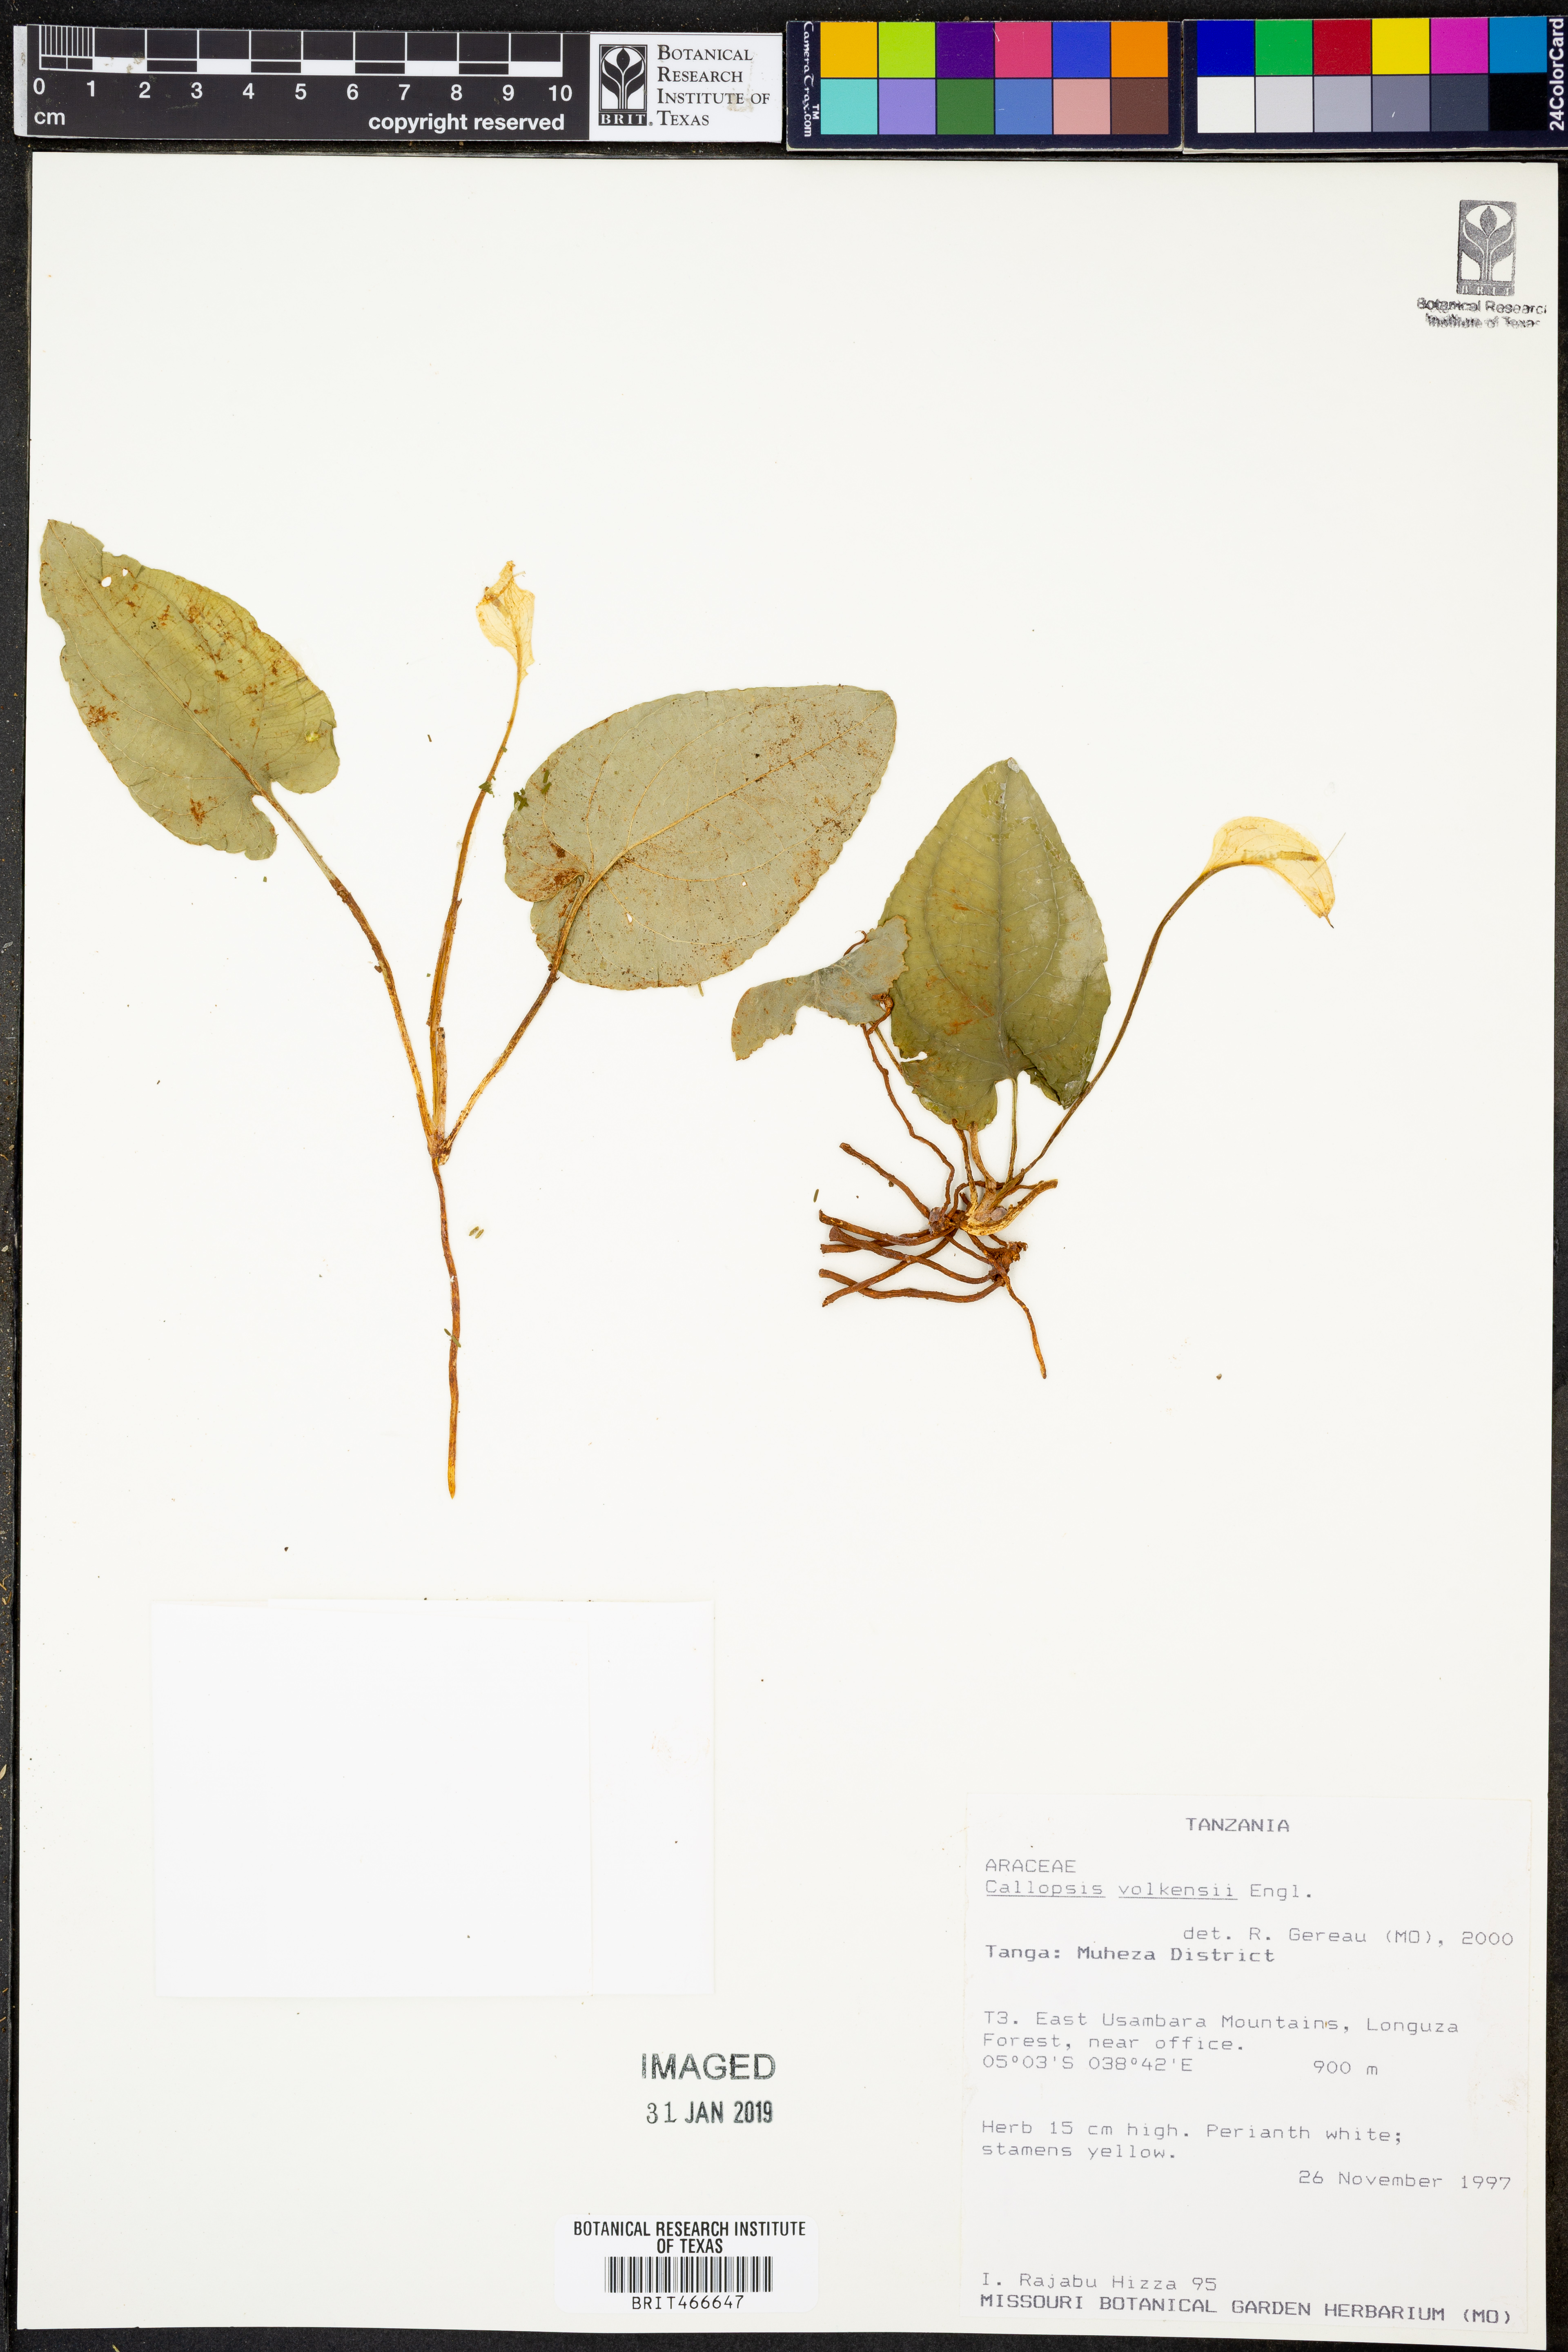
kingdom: Plantae
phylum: Tracheophyta
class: Liliopsida
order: Alismatales
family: Araceae
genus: Callopsis
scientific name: Callopsis volkensii
